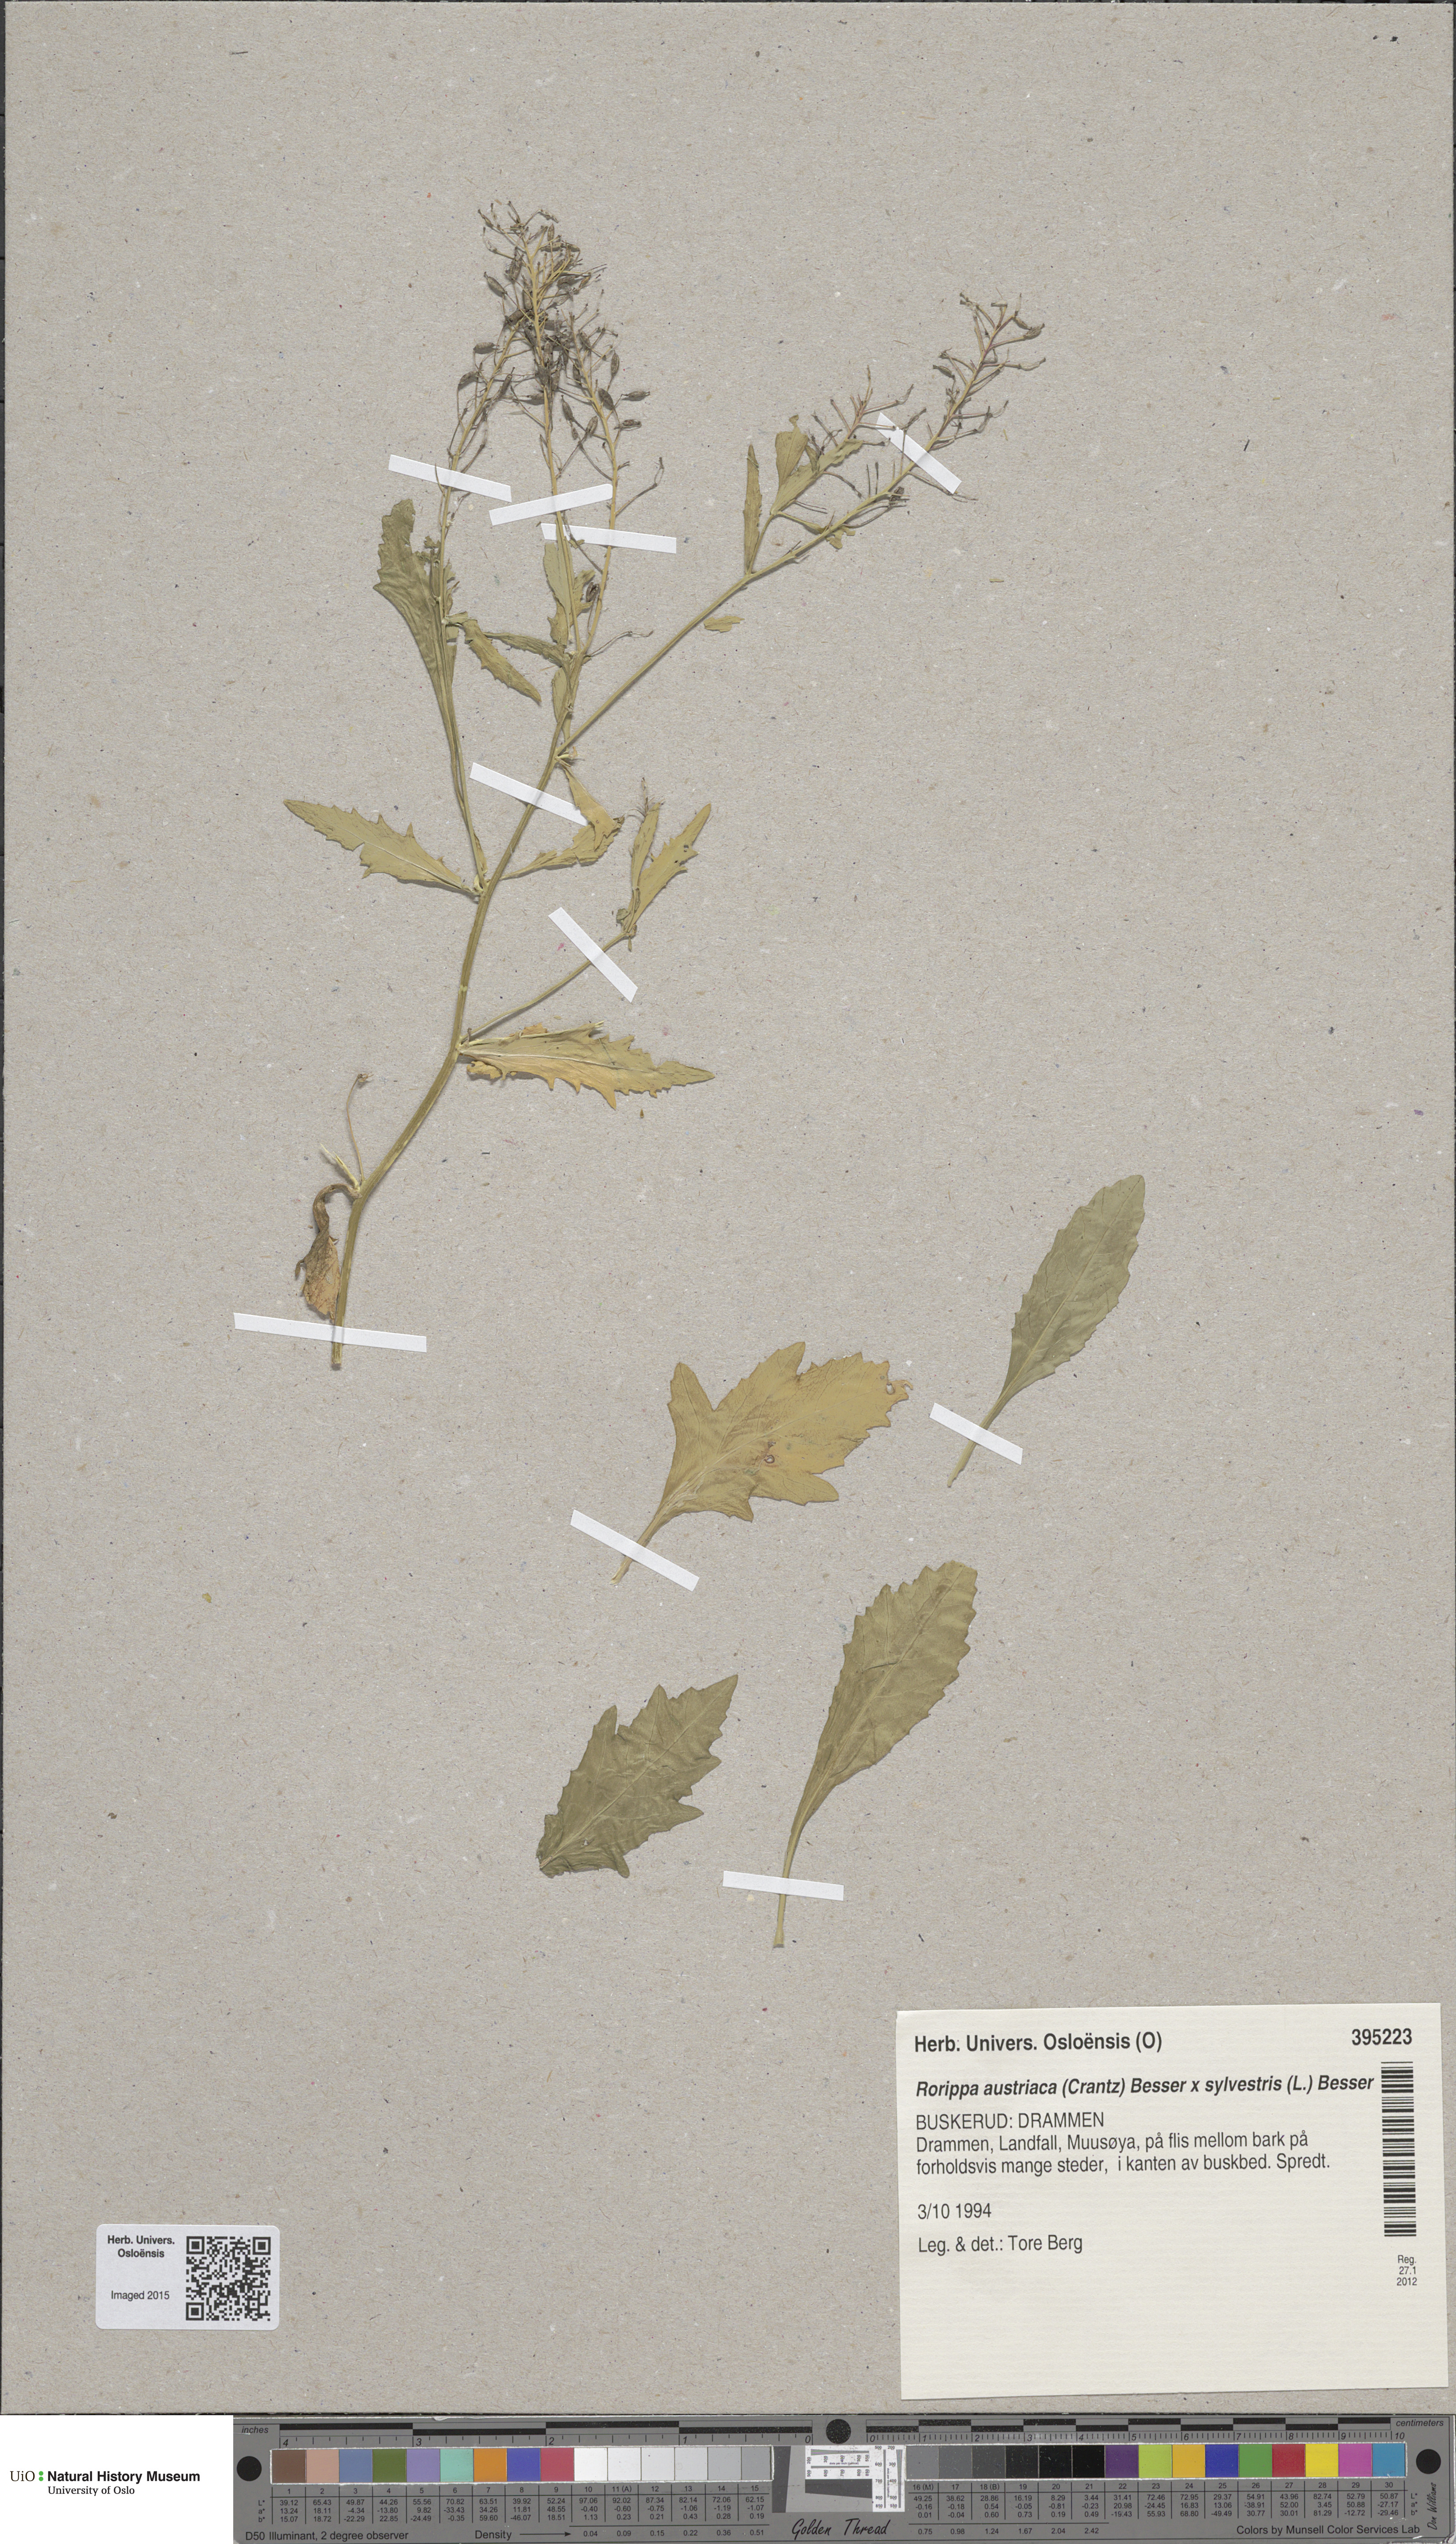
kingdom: Plantae
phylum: Tracheophyta
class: Magnoliopsida
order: Brassicales
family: Brassicaceae
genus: Rorippa
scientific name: Rorippa
